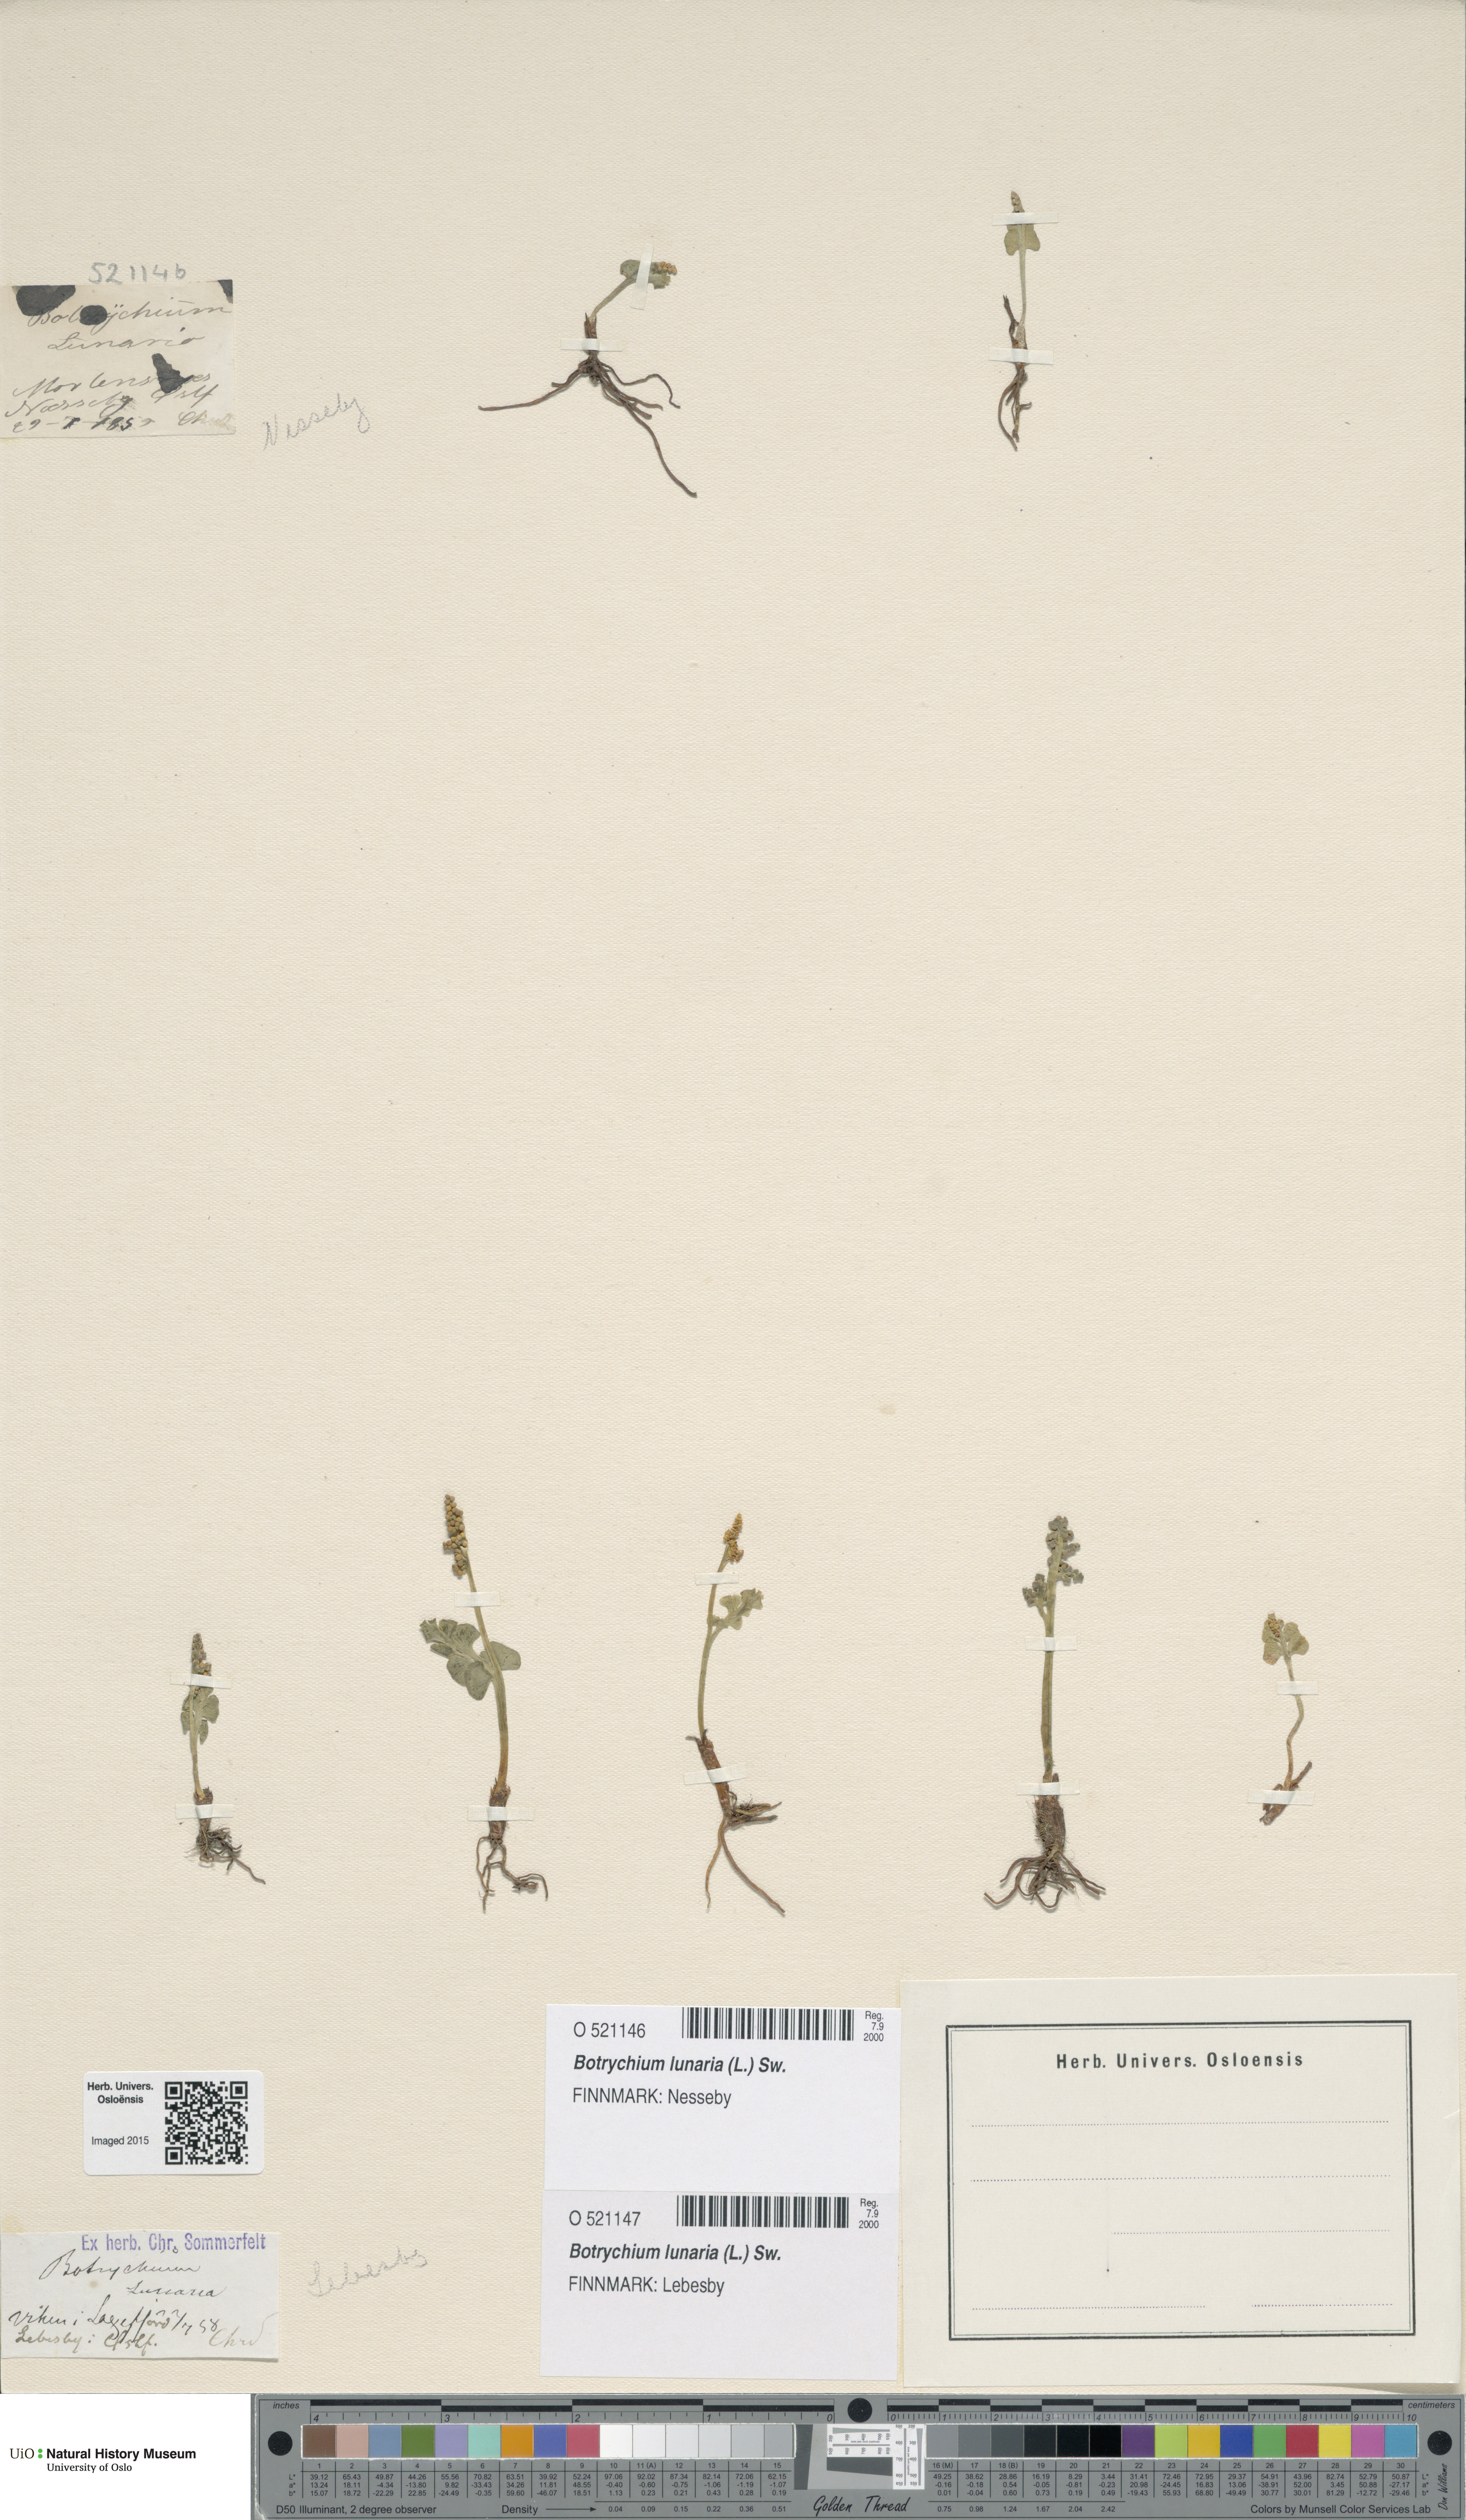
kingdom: Plantae
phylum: Tracheophyta
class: Polypodiopsida
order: Ophioglossales
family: Ophioglossaceae
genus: Botrychium
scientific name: Botrychium lunaria
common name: Moonwort
